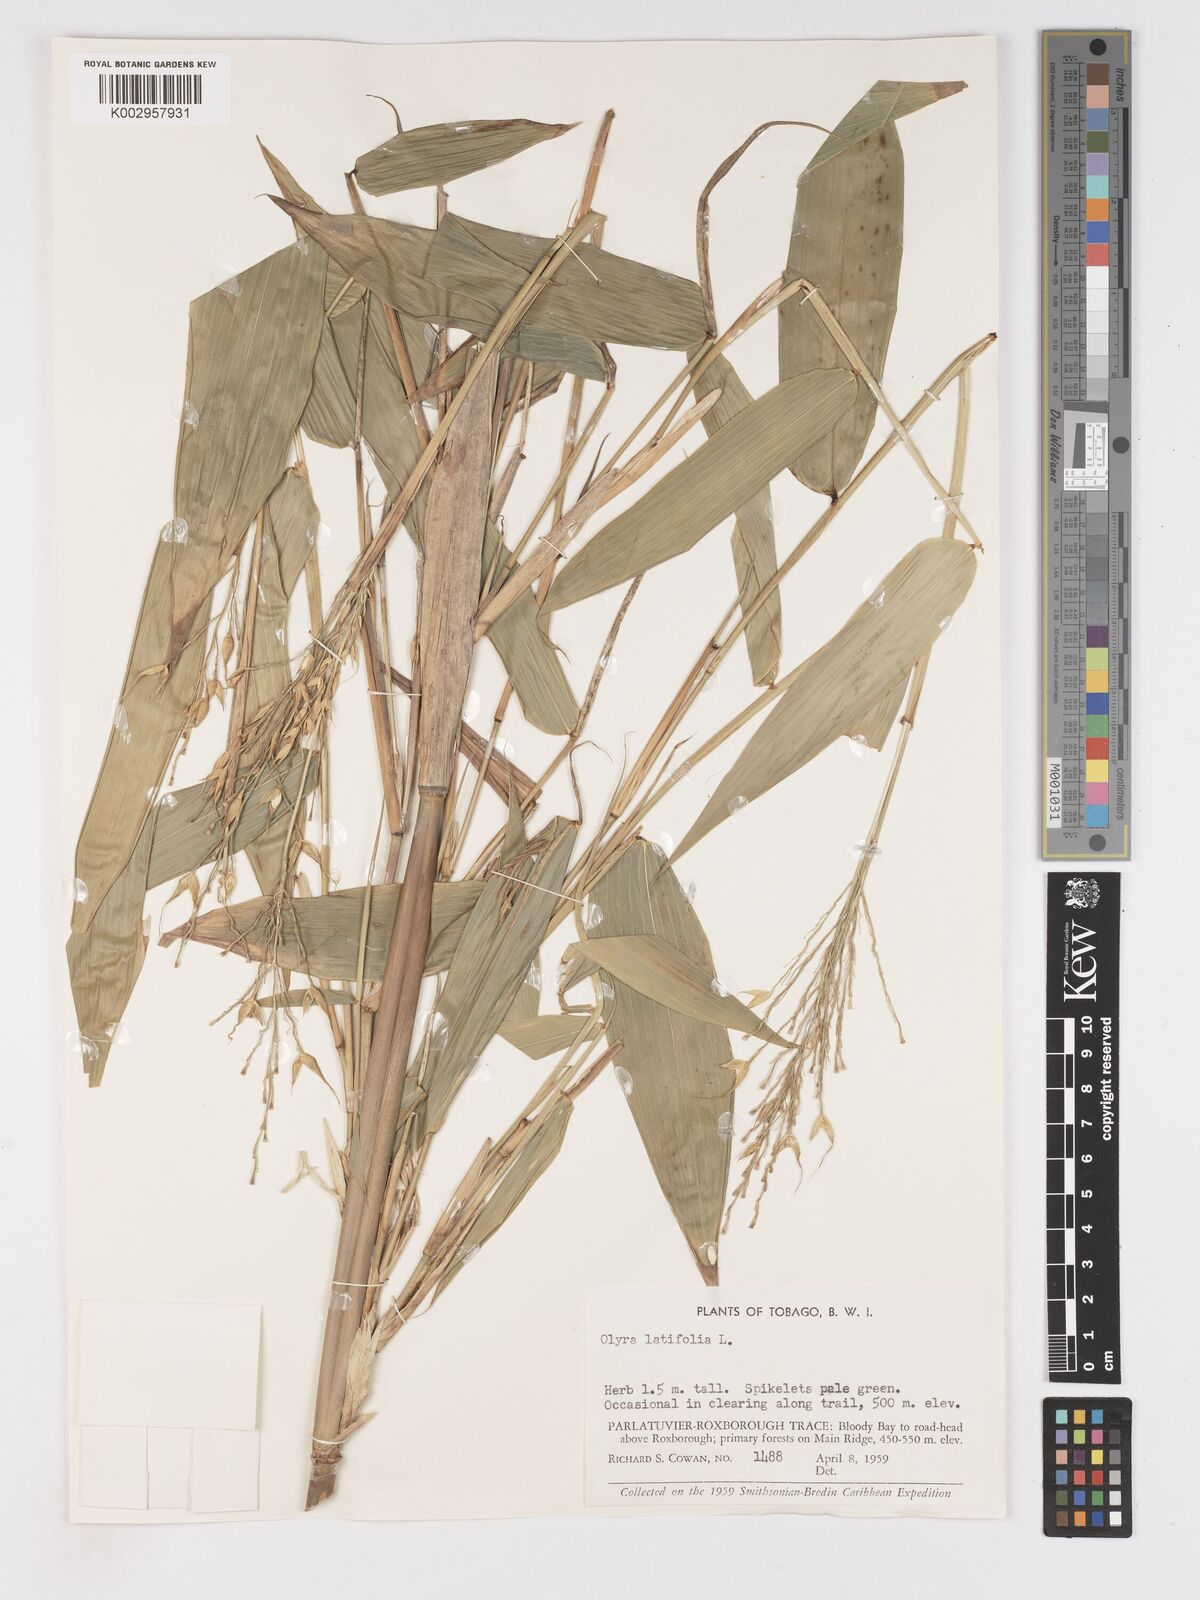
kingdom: Plantae
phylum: Tracheophyta
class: Liliopsida
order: Poales
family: Poaceae
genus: Olyra
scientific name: Olyra latifolia
